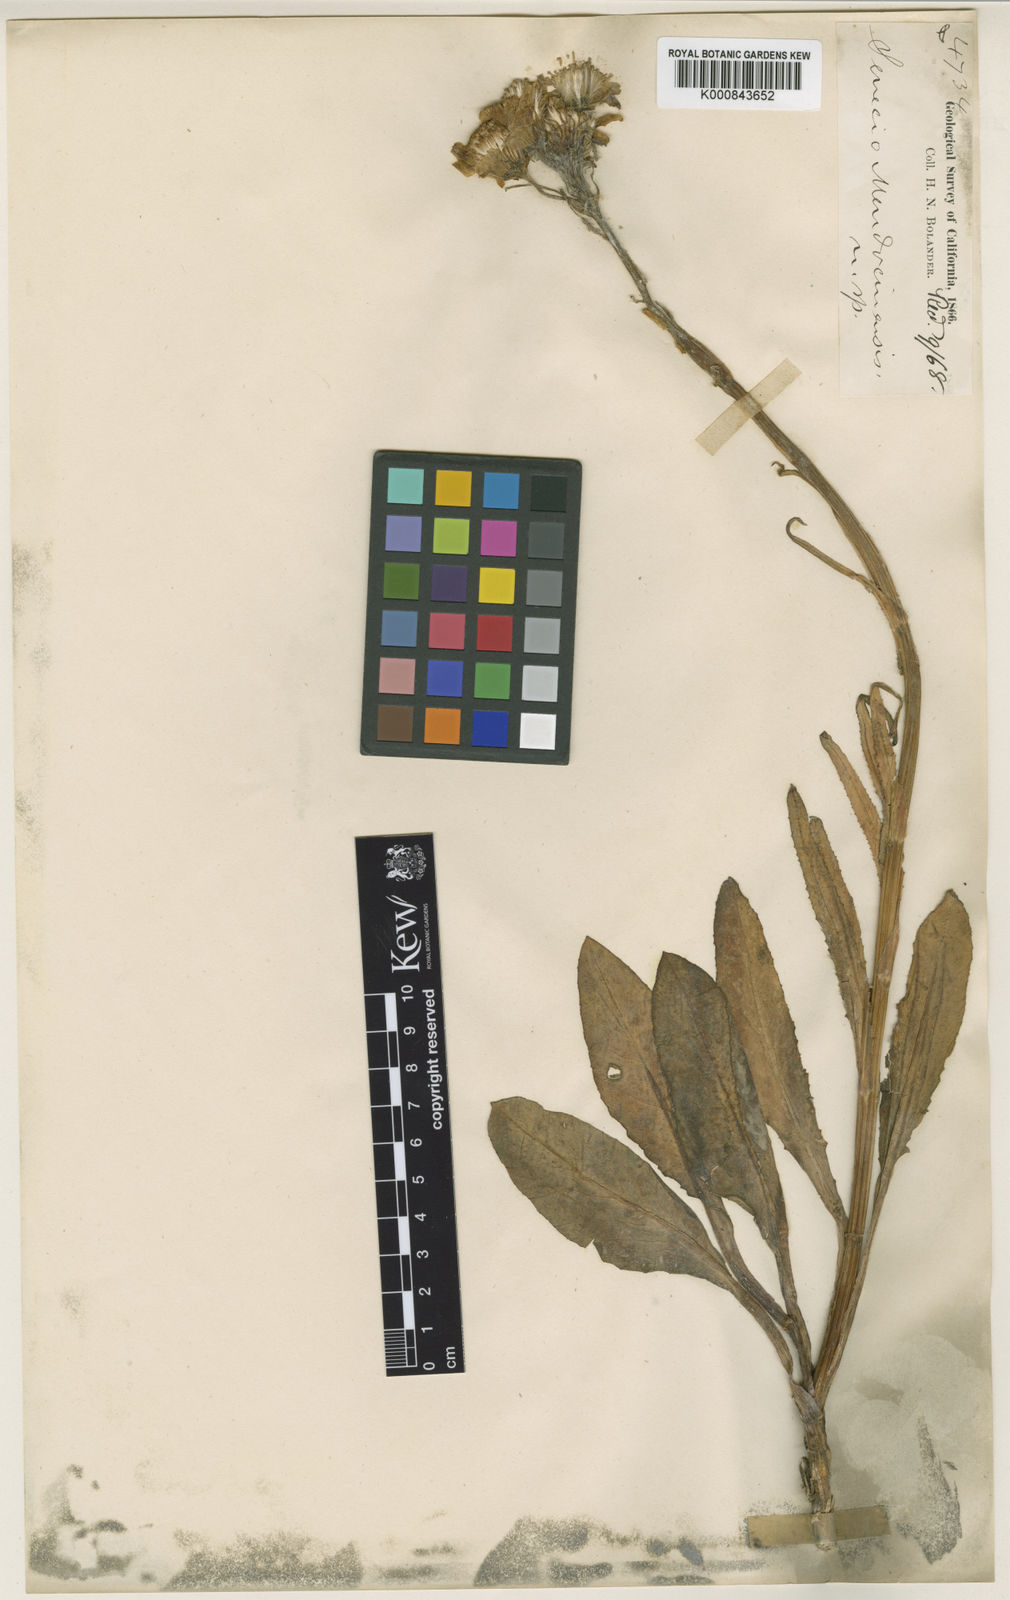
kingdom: Plantae
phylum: Tracheophyta
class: Magnoliopsida
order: Asterales
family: Asteraceae
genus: Senecio
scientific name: Senecio integerrimus
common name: Gaugeplant
